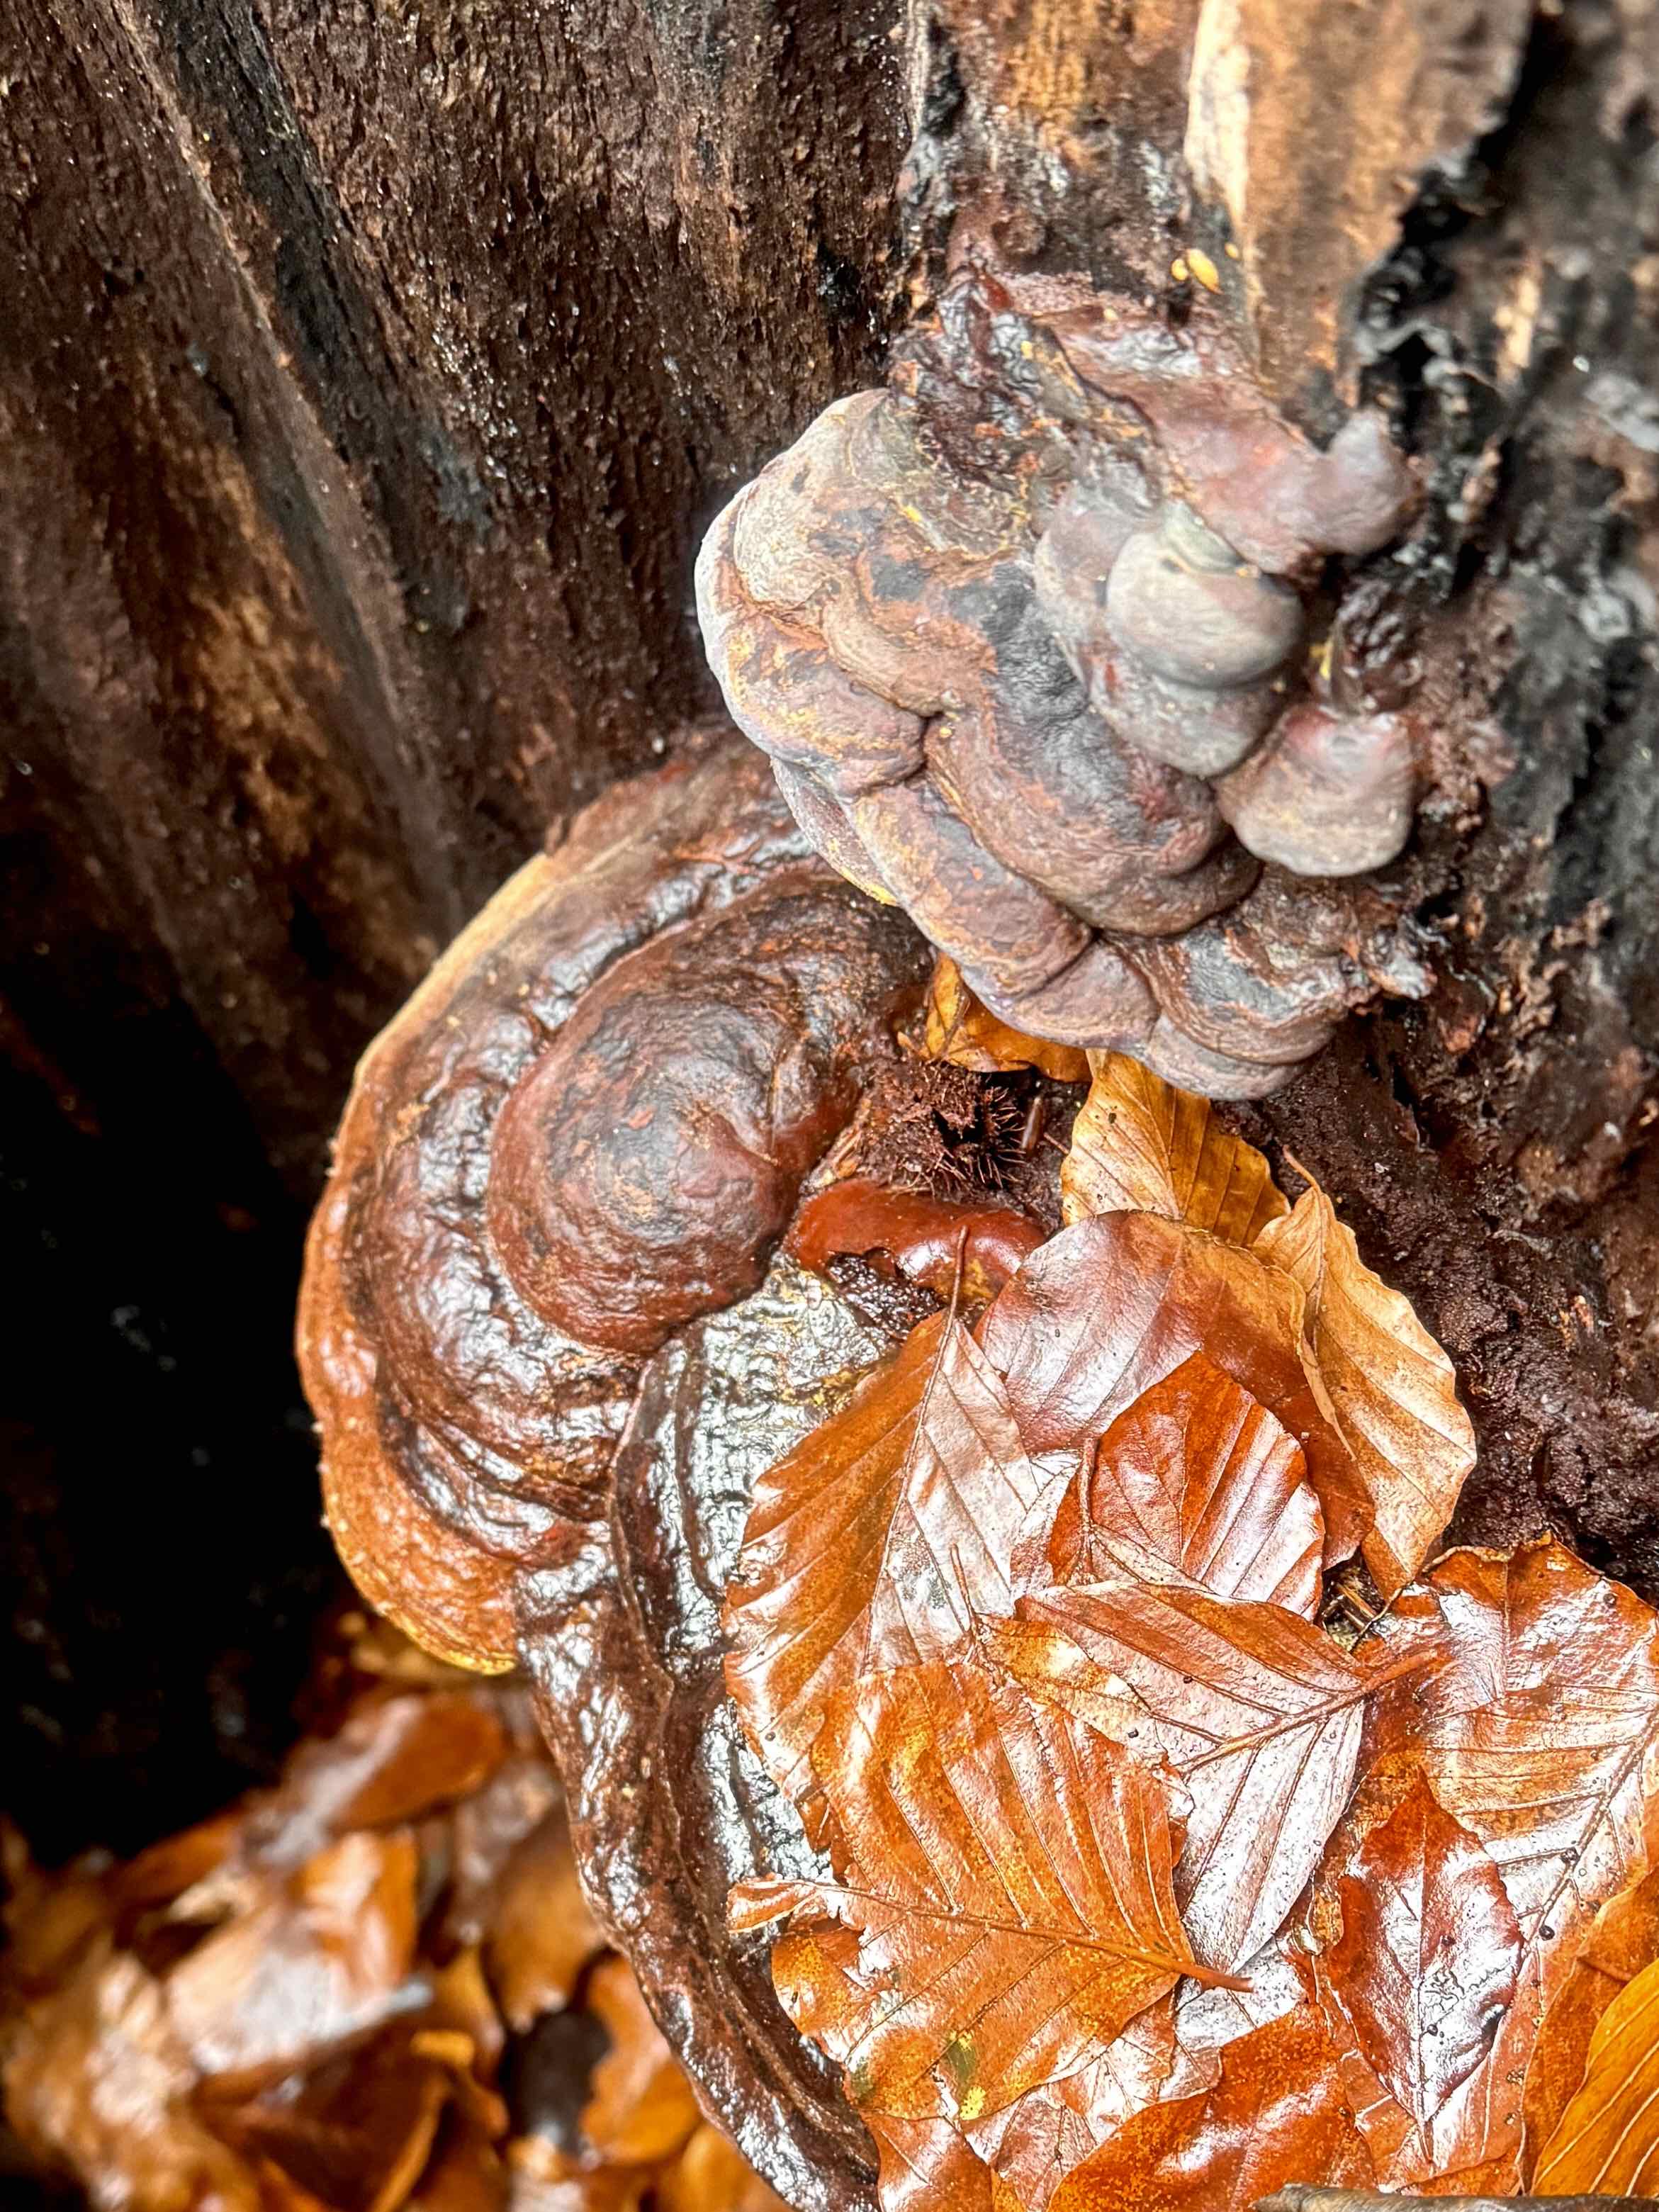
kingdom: Fungi
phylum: Basidiomycota
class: Agaricomycetes
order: Polyporales
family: Polyporaceae
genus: Ganoderma
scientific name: Ganoderma pfeifferi
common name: kobberrød lakporesvamp
